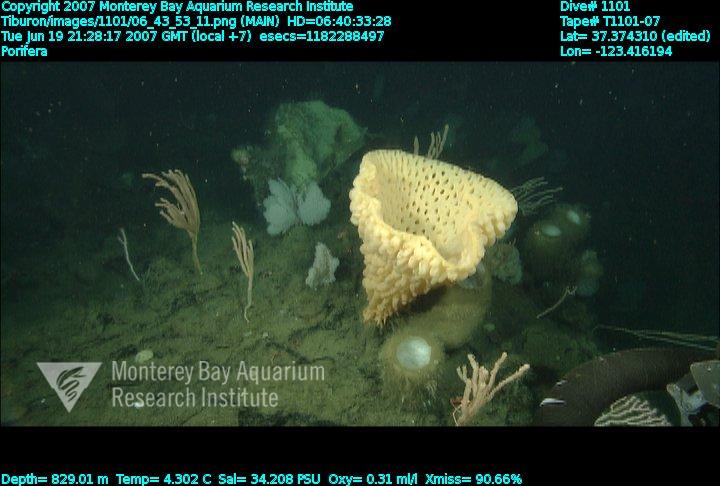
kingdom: Animalia
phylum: Porifera
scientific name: Porifera
